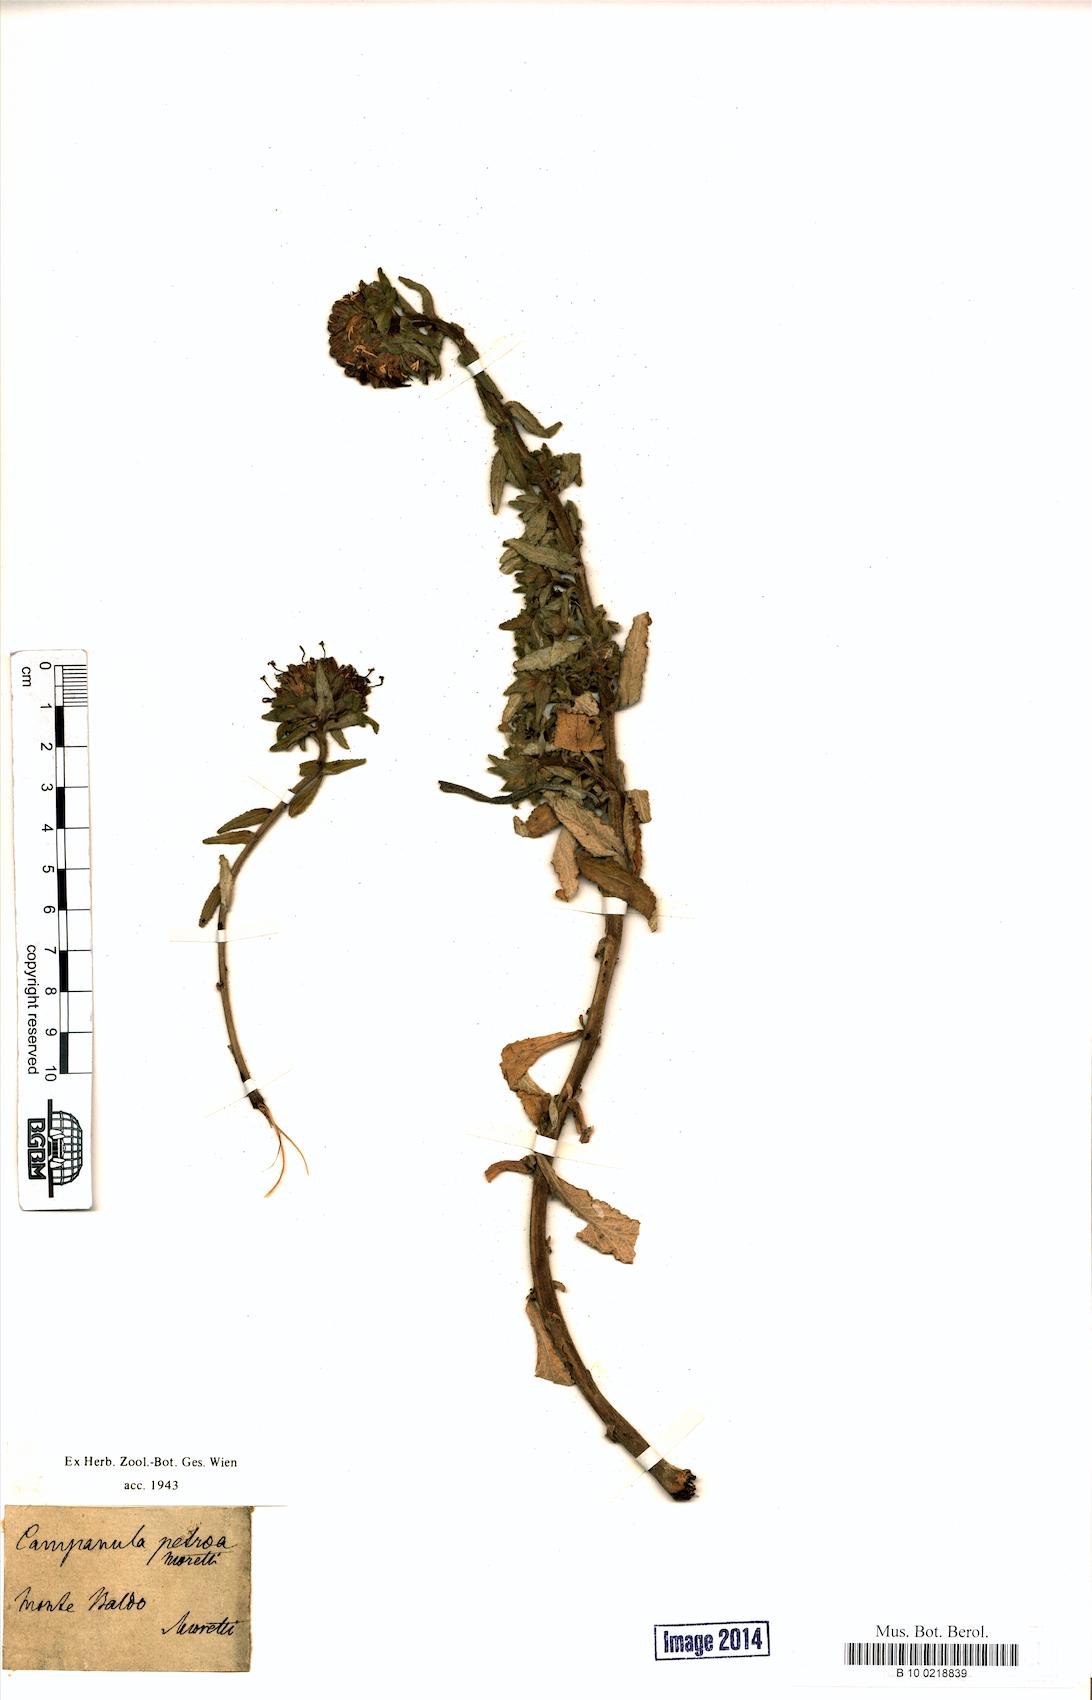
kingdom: Plantae
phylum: Tracheophyta
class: Magnoliopsida
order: Asterales
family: Campanulaceae
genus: Campanula
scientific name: Campanula petraea
